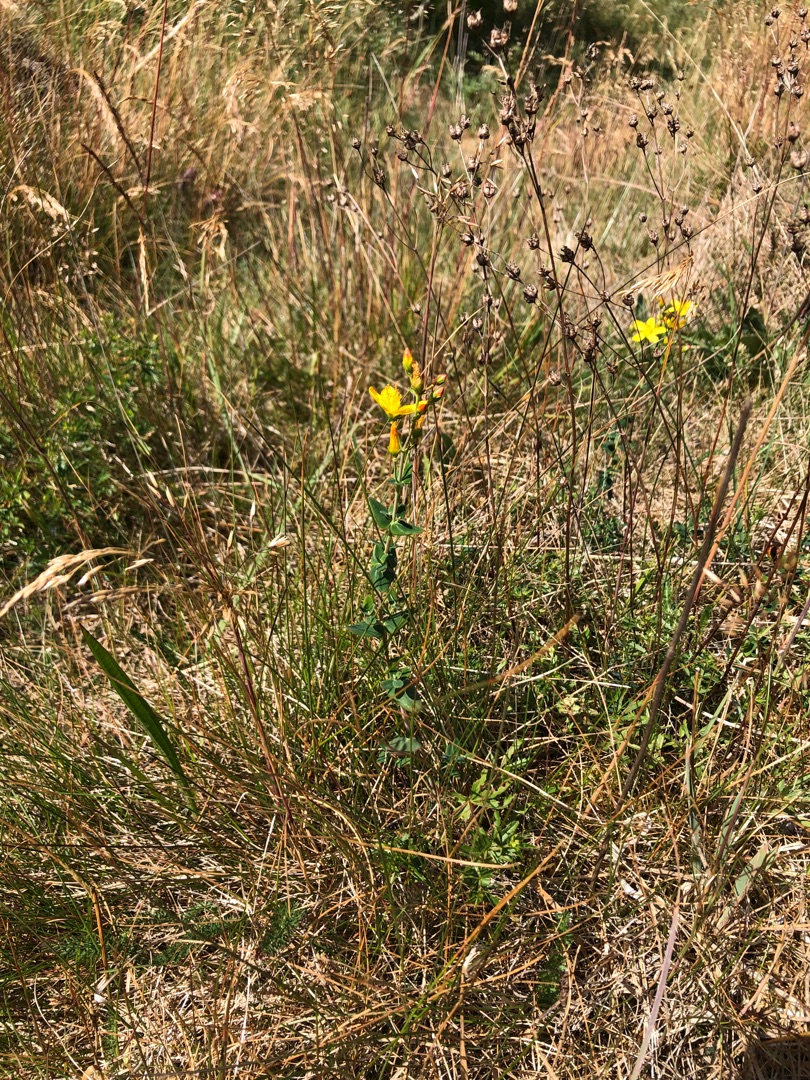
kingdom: Plantae
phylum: Tracheophyta
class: Magnoliopsida
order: Malpighiales
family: Hypericaceae
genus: Hypericum
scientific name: Hypericum pulchrum
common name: Smuk perikon
